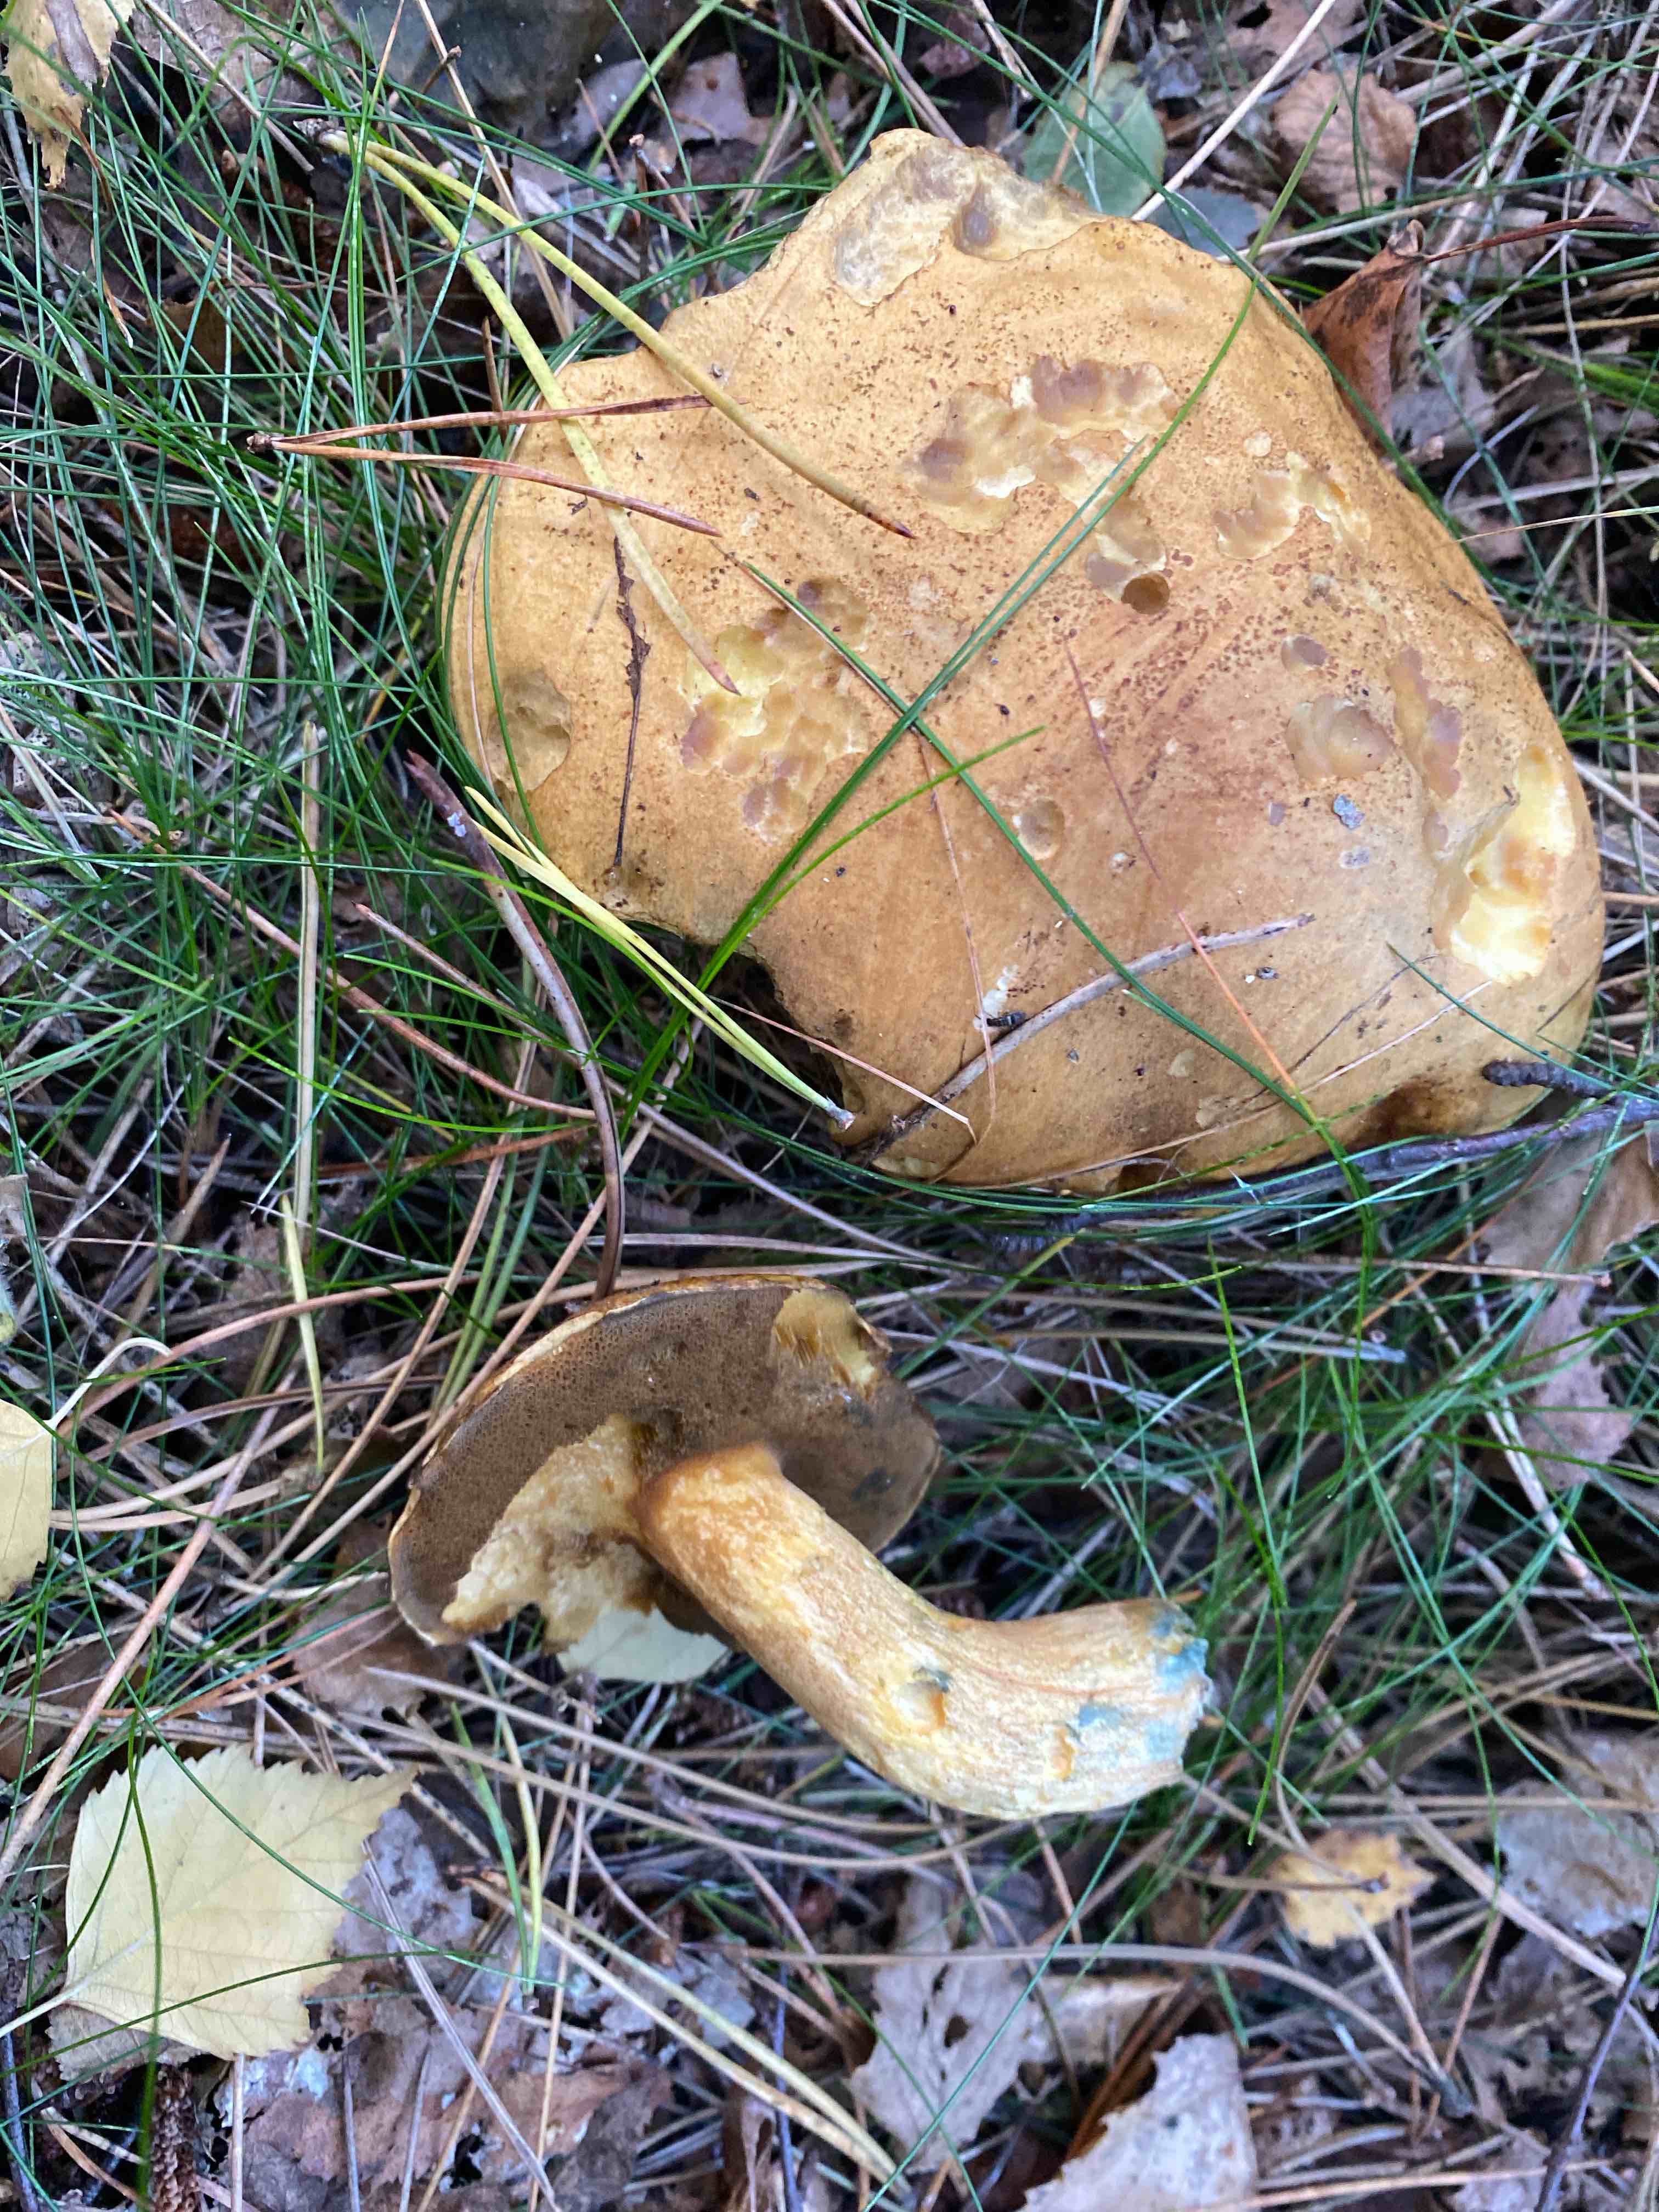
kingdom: Fungi
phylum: Basidiomycota
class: Agaricomycetes
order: Boletales
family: Suillaceae
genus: Suillus
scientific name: Suillus variegatus
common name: broget slimrørhat
